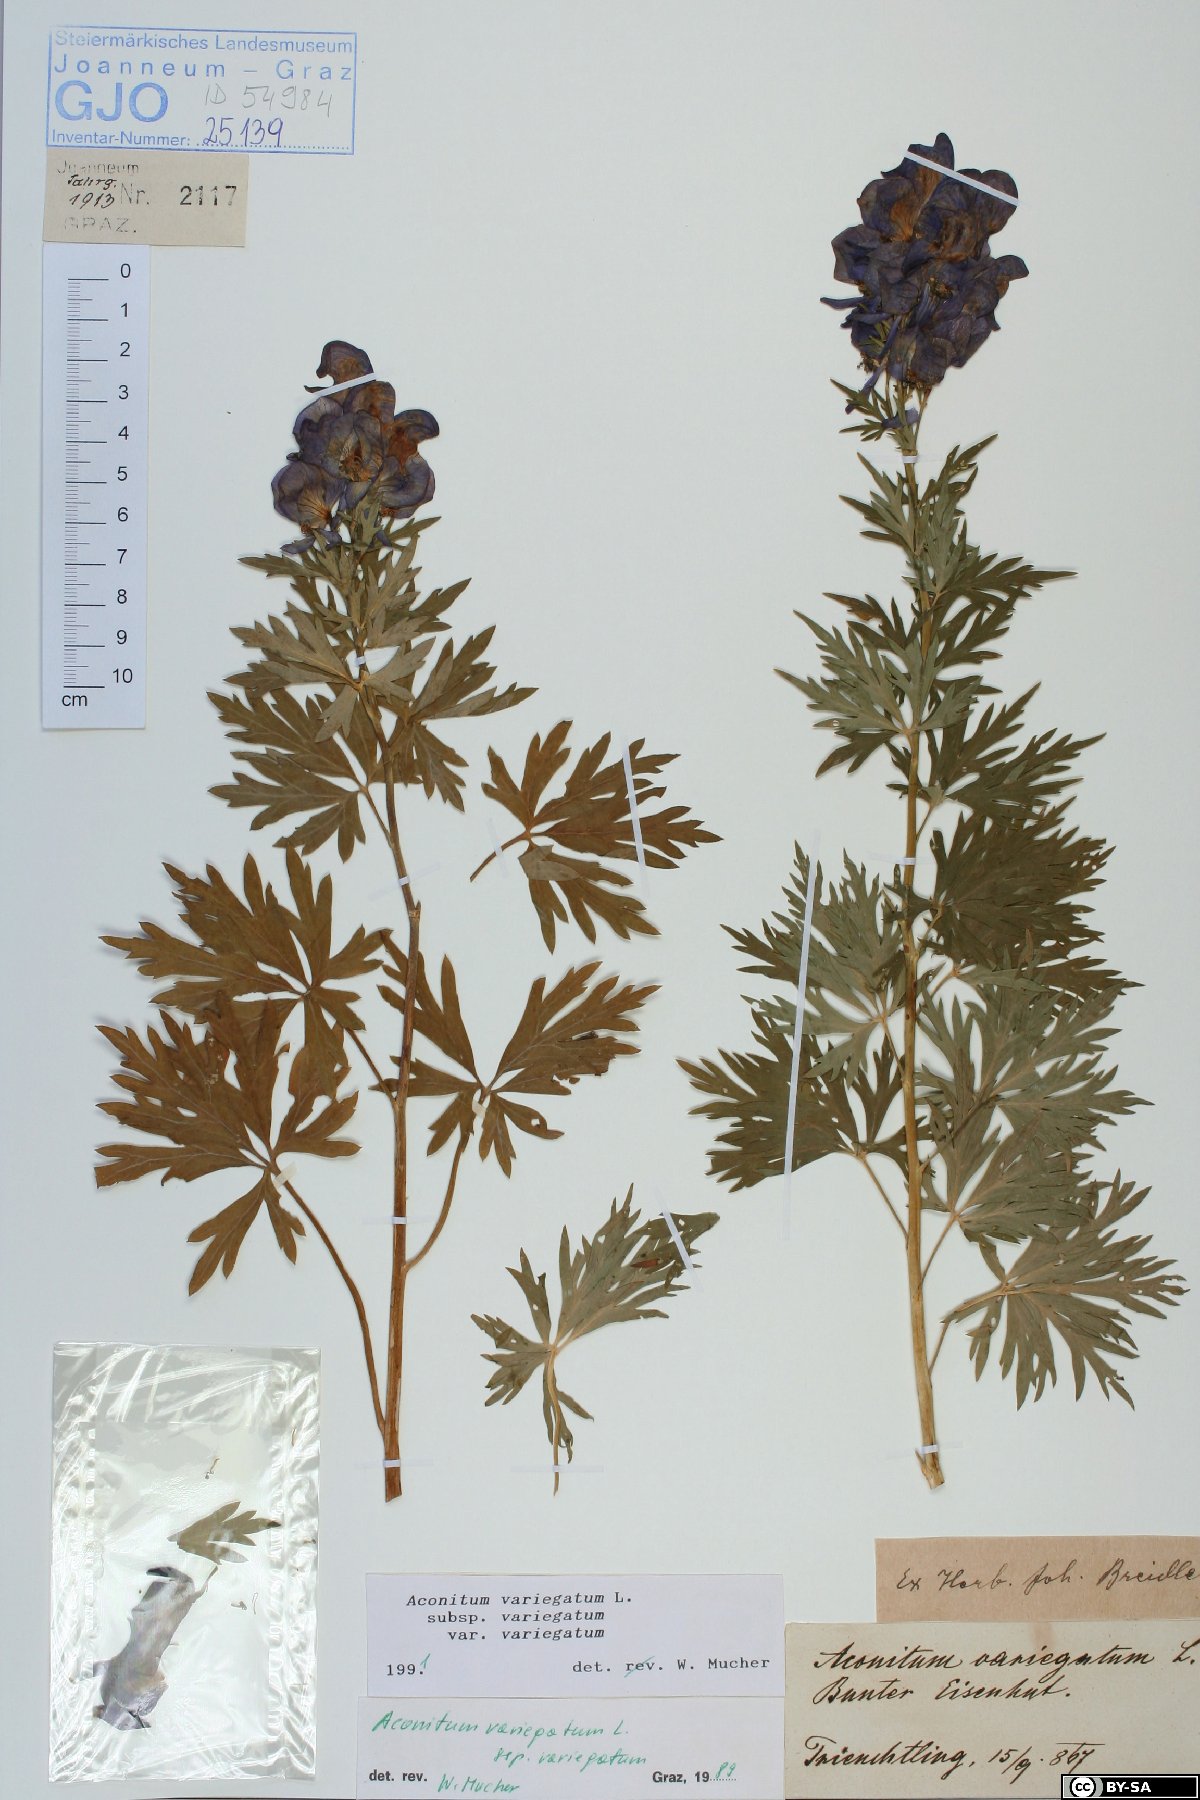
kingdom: Plantae
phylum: Tracheophyta
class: Magnoliopsida
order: Ranunculales
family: Ranunculaceae
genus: Aconitum
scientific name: Aconitum variegatum
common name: Manchurian monkshood
